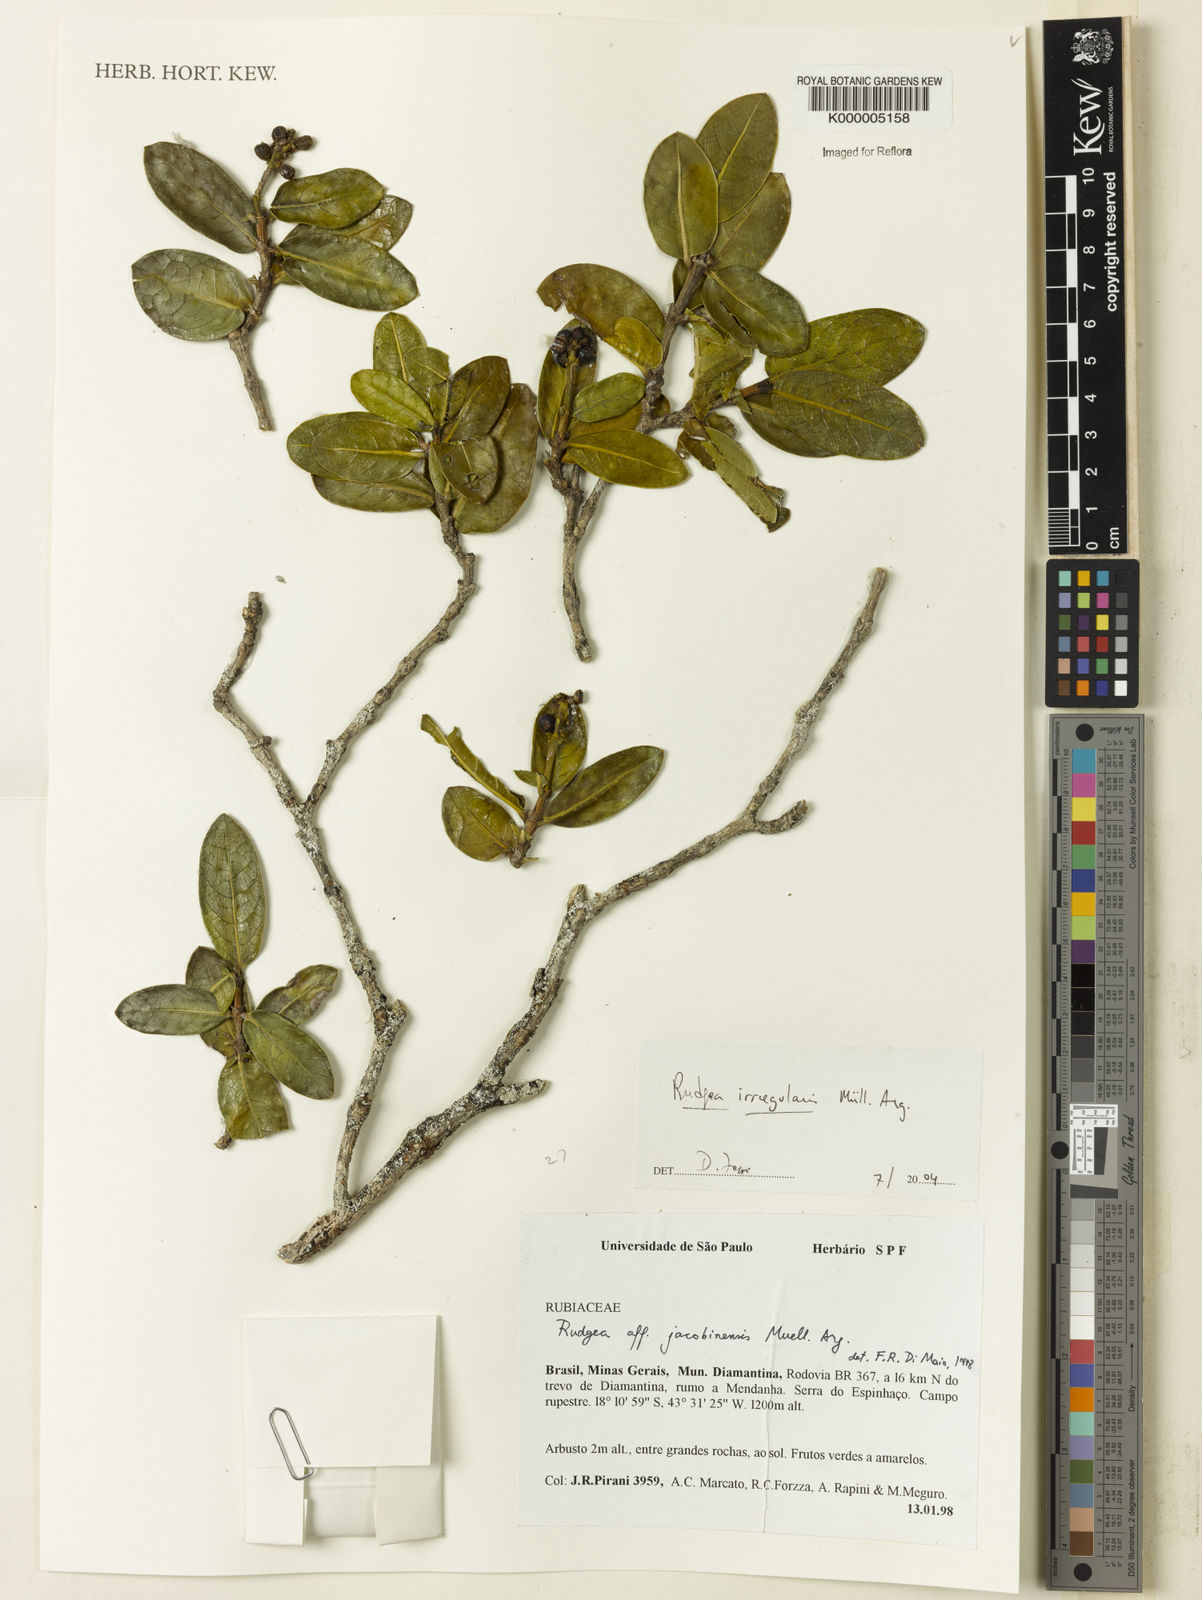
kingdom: Plantae
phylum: Tracheophyta
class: Magnoliopsida
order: Gentianales
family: Rubiaceae
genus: Rudgea
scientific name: Rudgea irregularis
